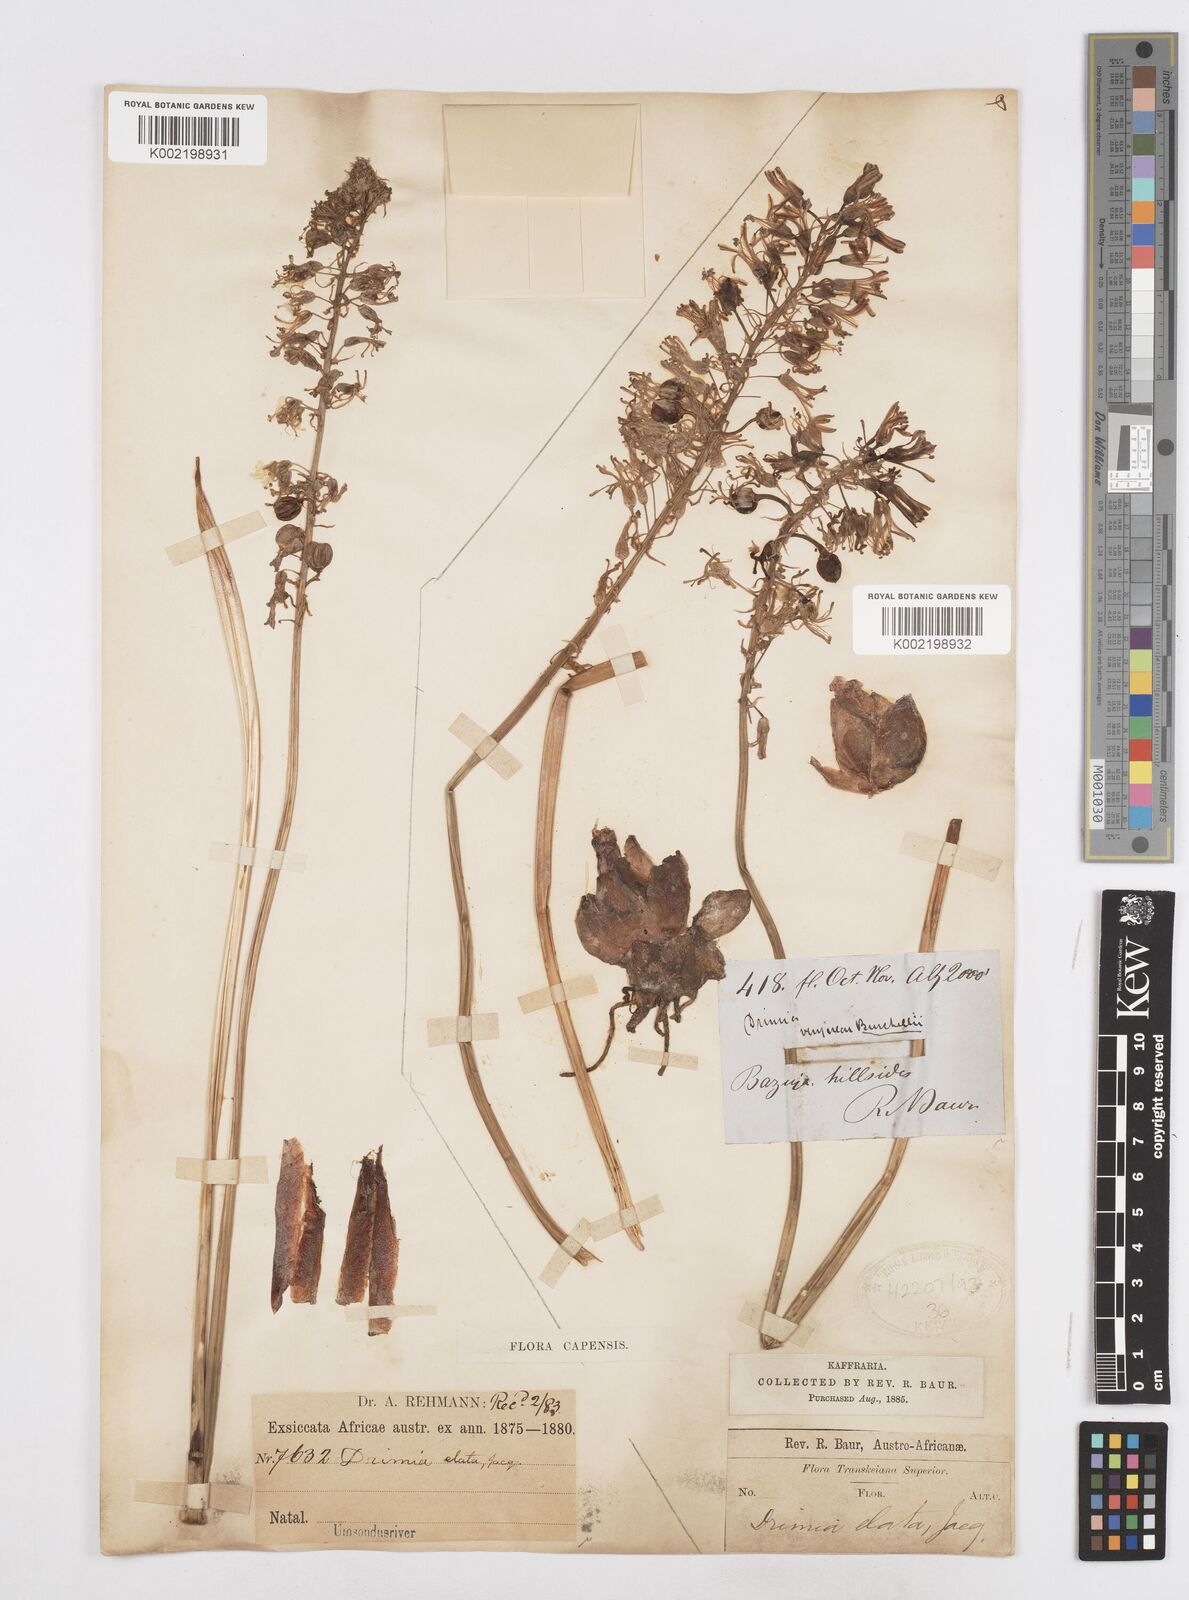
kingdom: Plantae
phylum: Tracheophyta
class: Liliopsida
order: Asparagales
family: Asparagaceae
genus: Drimia
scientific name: Drimia elata
